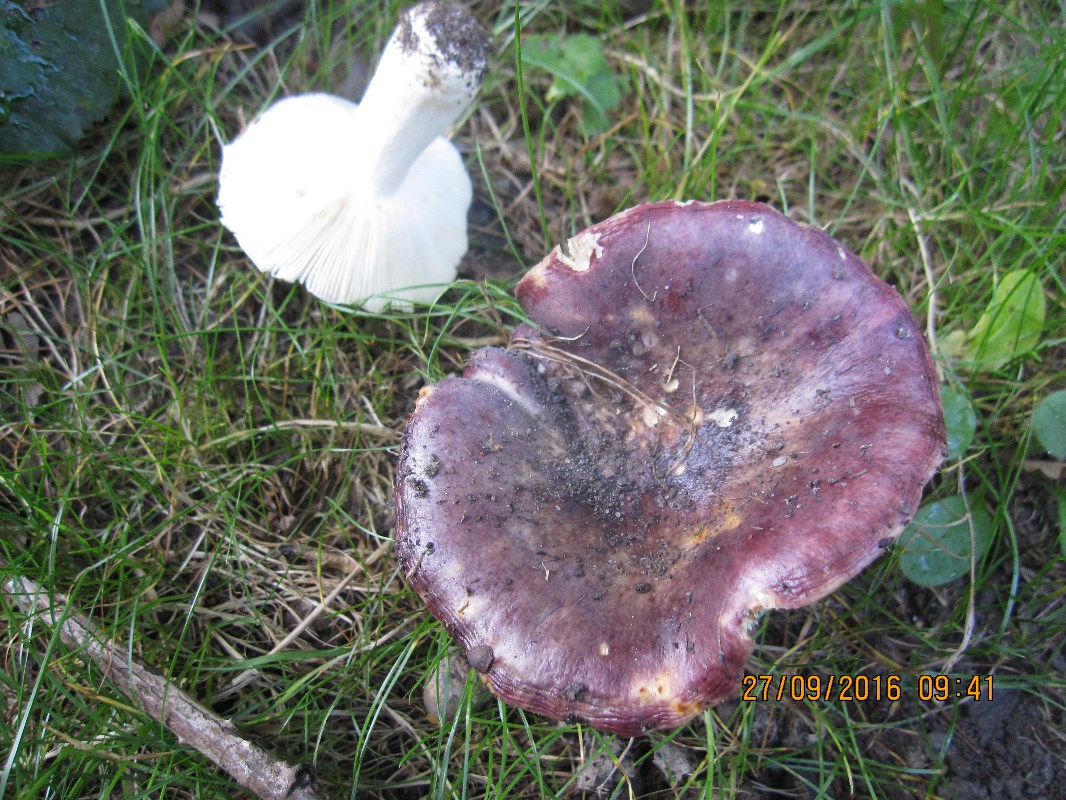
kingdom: Fungi
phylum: Basidiomycota
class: Agaricomycetes
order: Russulales
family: Russulaceae
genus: Russula
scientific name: Russula atropurpurea
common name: purpurbroget skørhat
